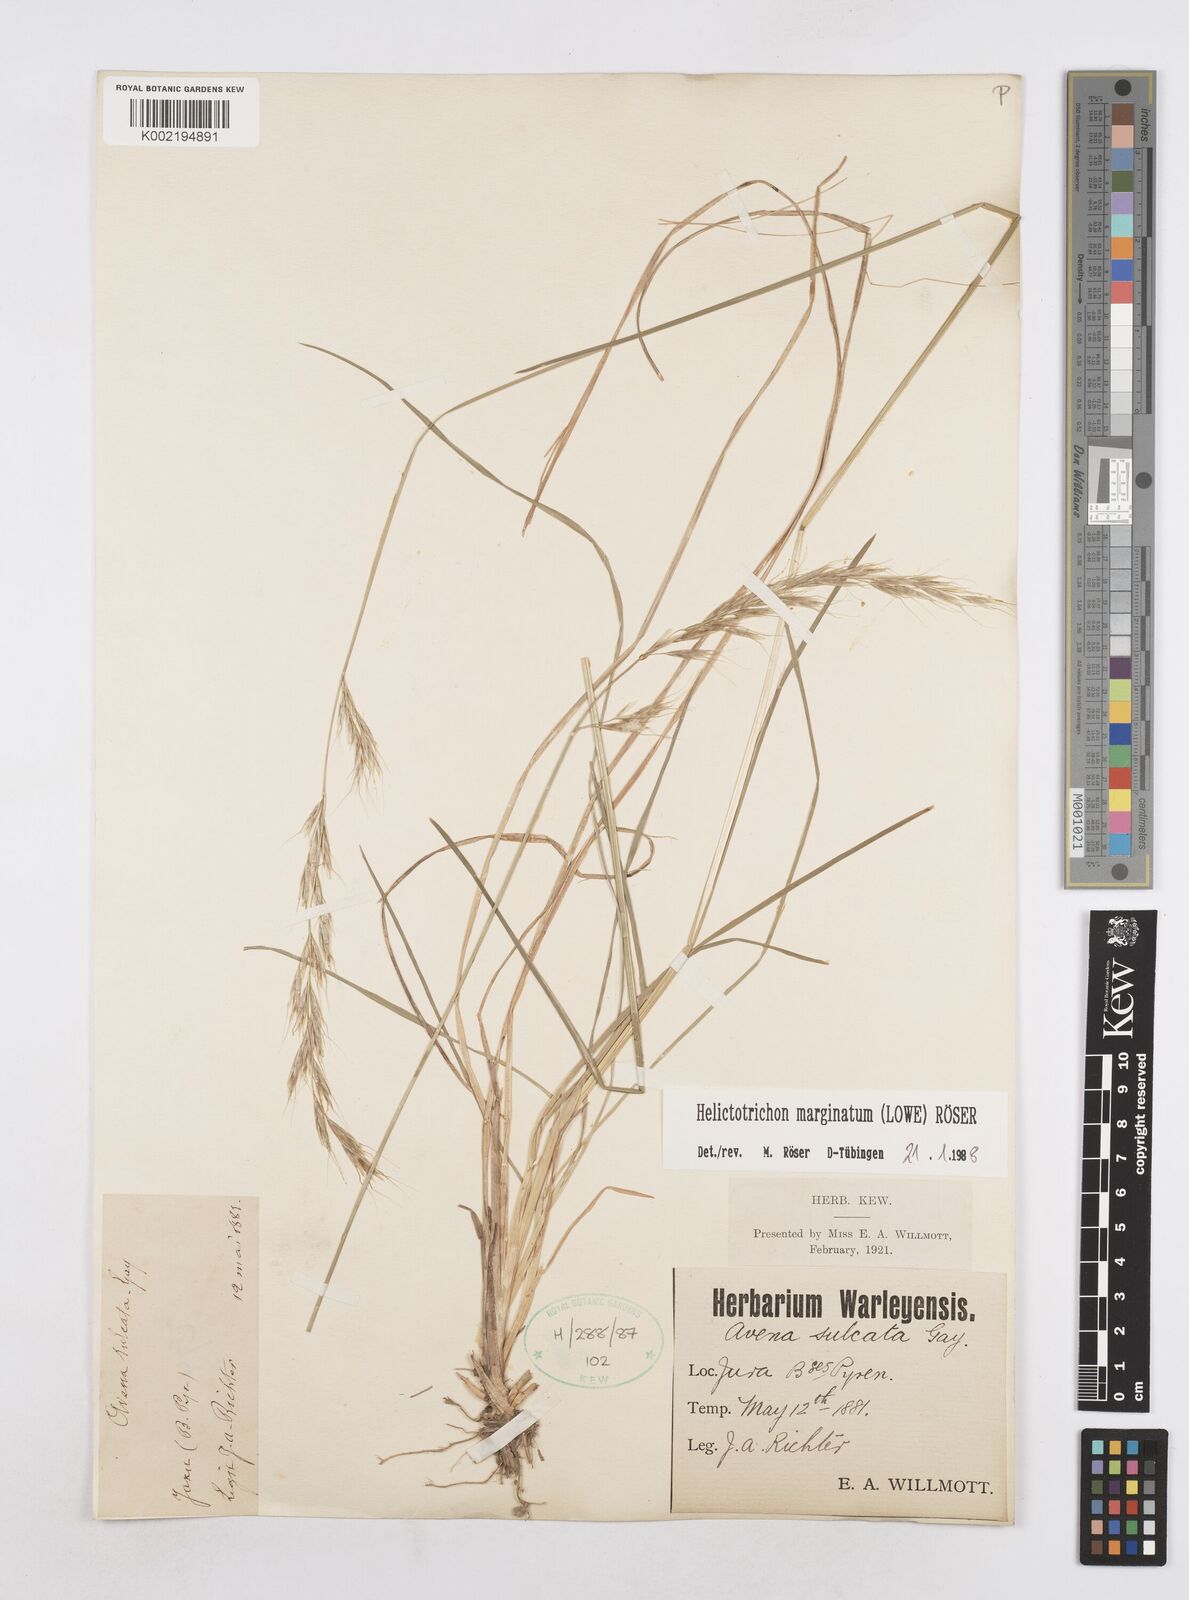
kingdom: Plantae
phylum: Tracheophyta
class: Liliopsida
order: Poales
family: Poaceae
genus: Helictotrichon
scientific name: Helictotrichon
